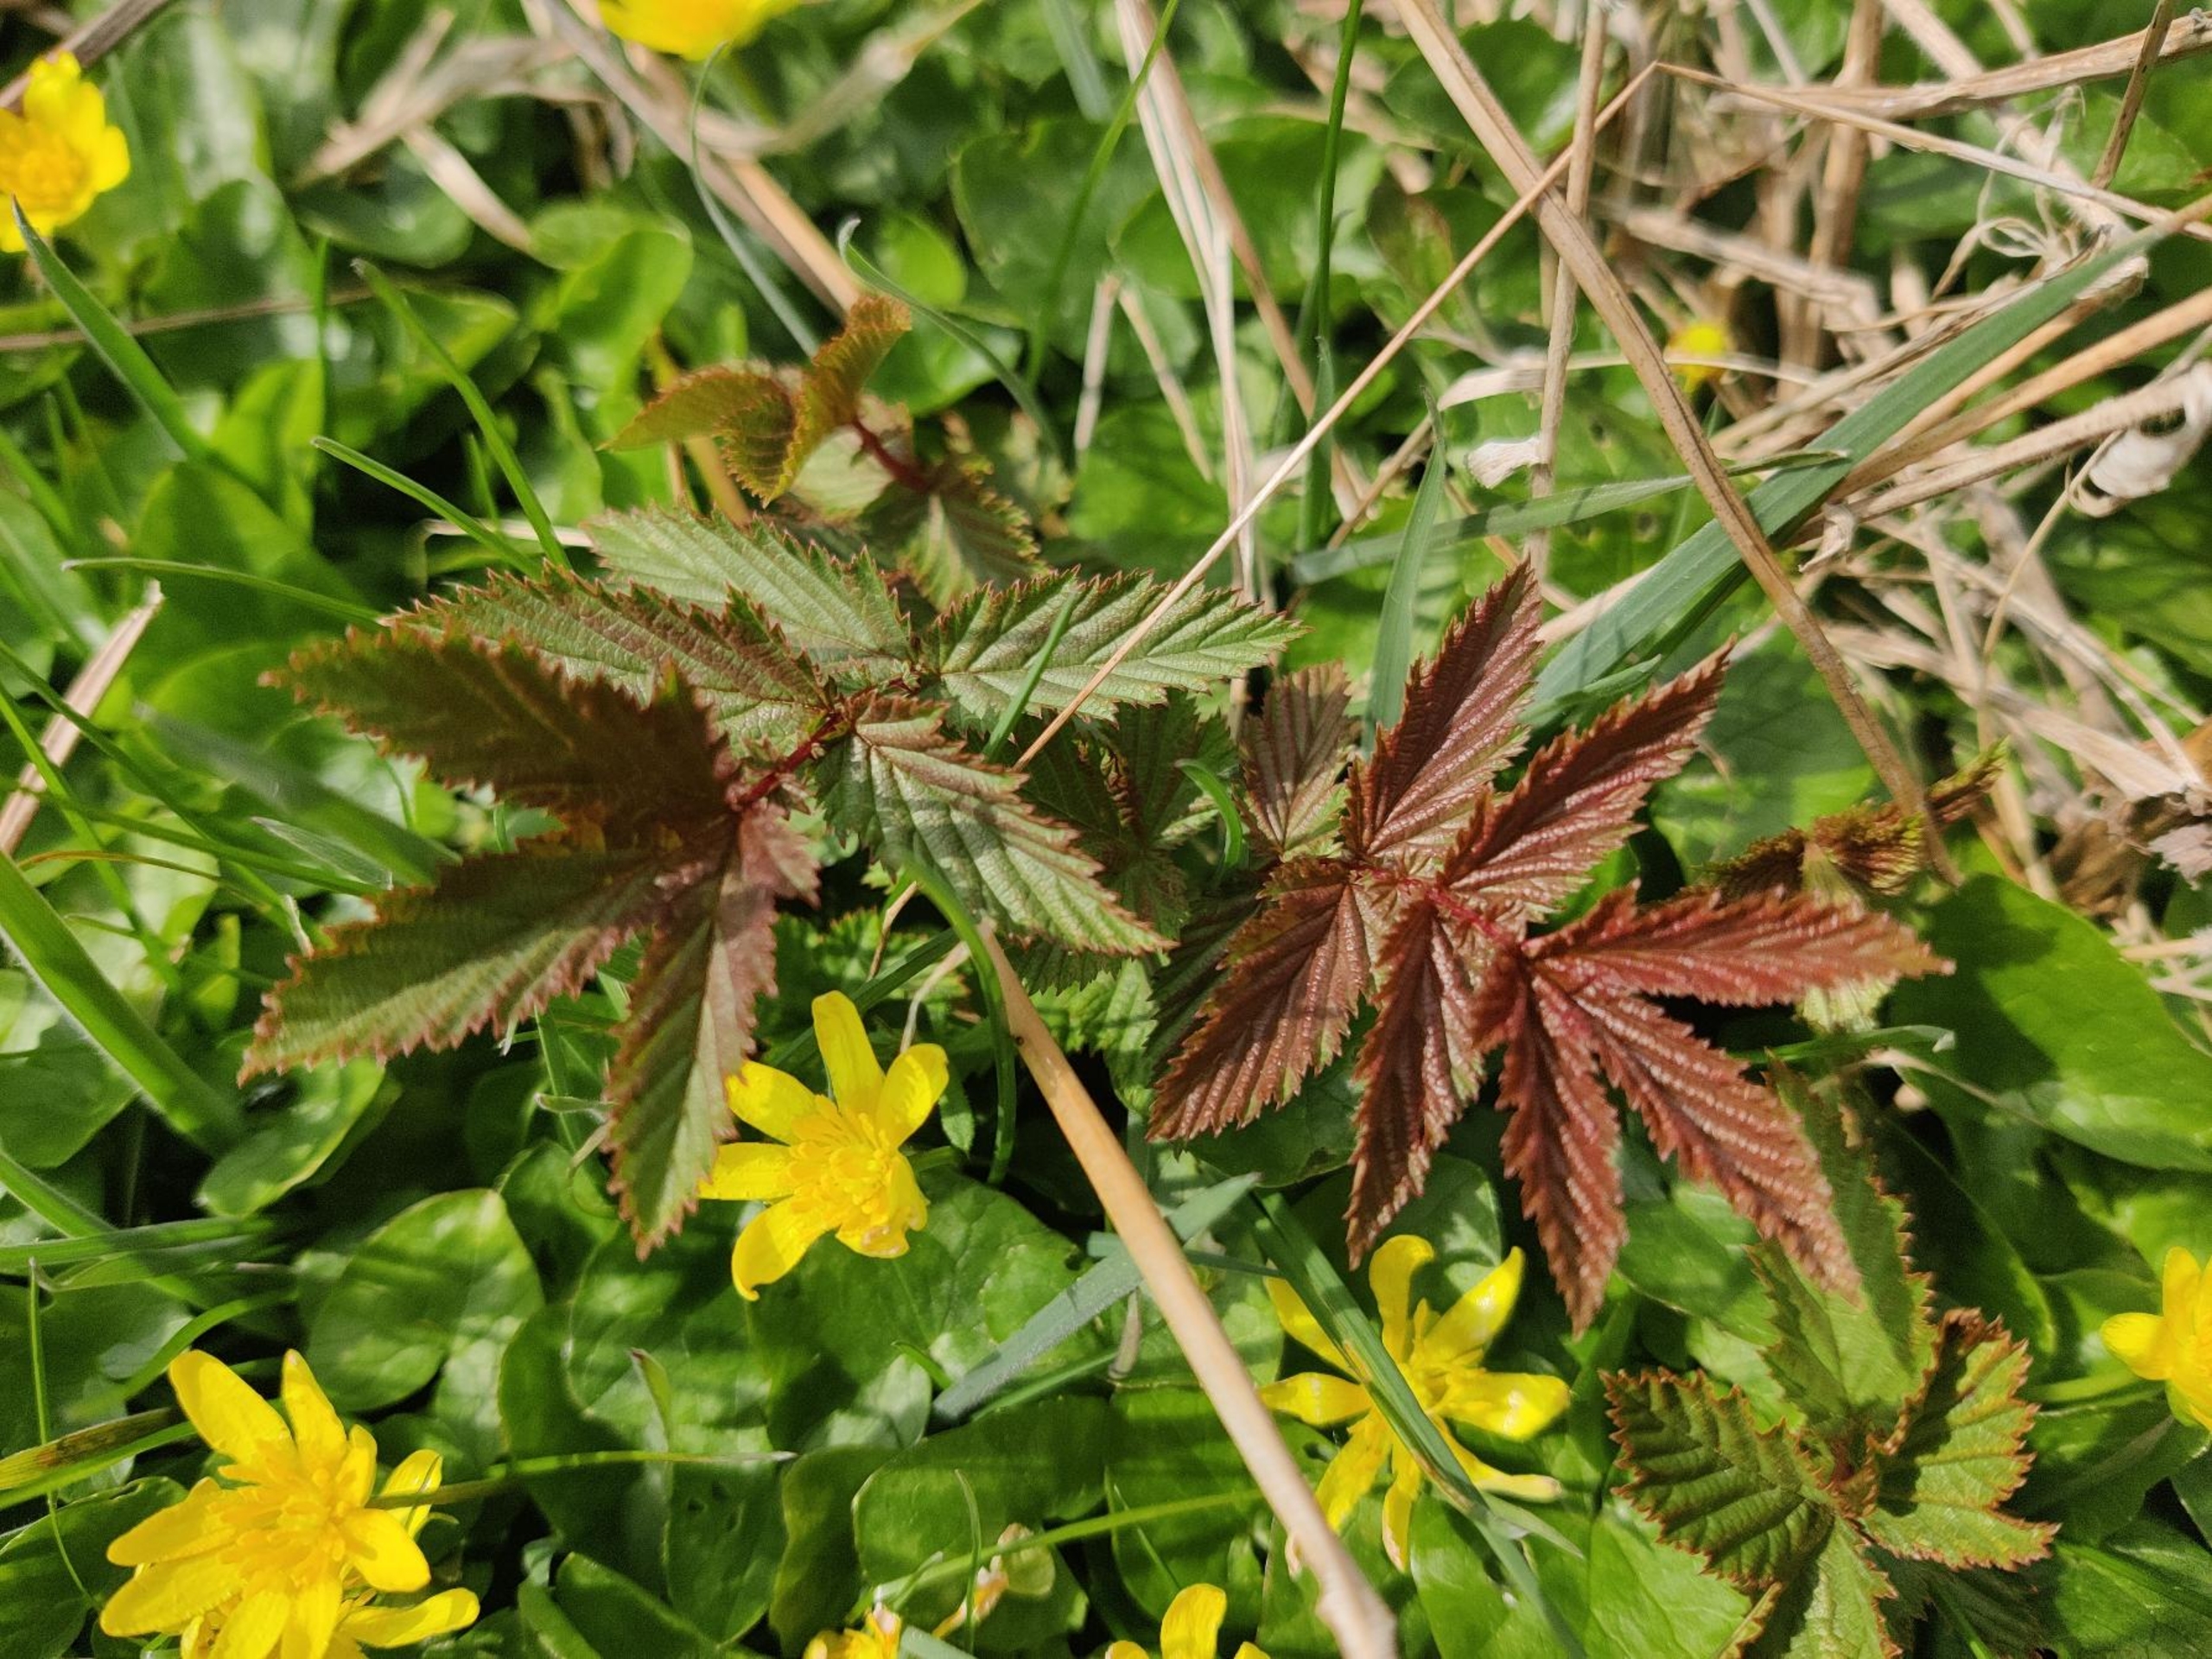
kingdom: Plantae
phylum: Tracheophyta
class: Magnoliopsida
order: Rosales
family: Rosaceae
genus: Filipendula
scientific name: Filipendula ulmaria
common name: Almindelig mjødurt
